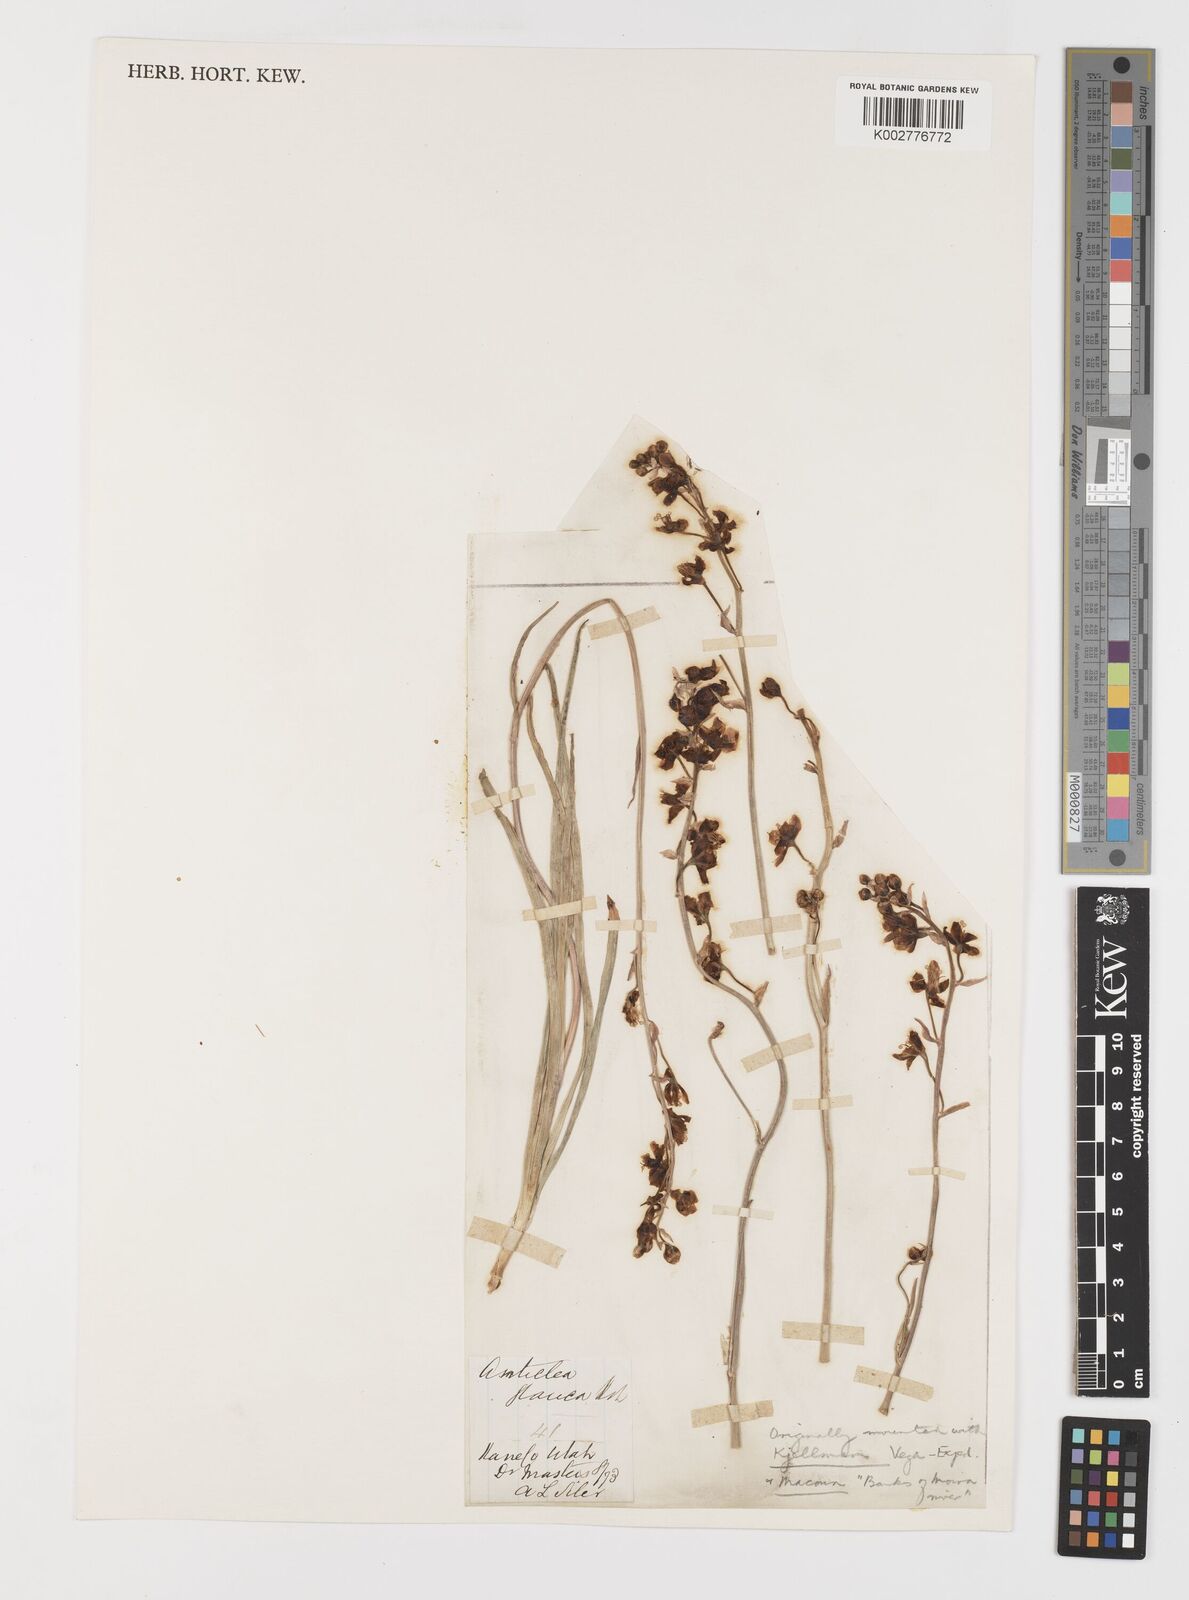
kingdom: Plantae
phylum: Tracheophyta
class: Liliopsida
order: Liliales
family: Melanthiaceae
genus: Anticlea
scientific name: Anticlea elegans
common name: Mountain death camas
